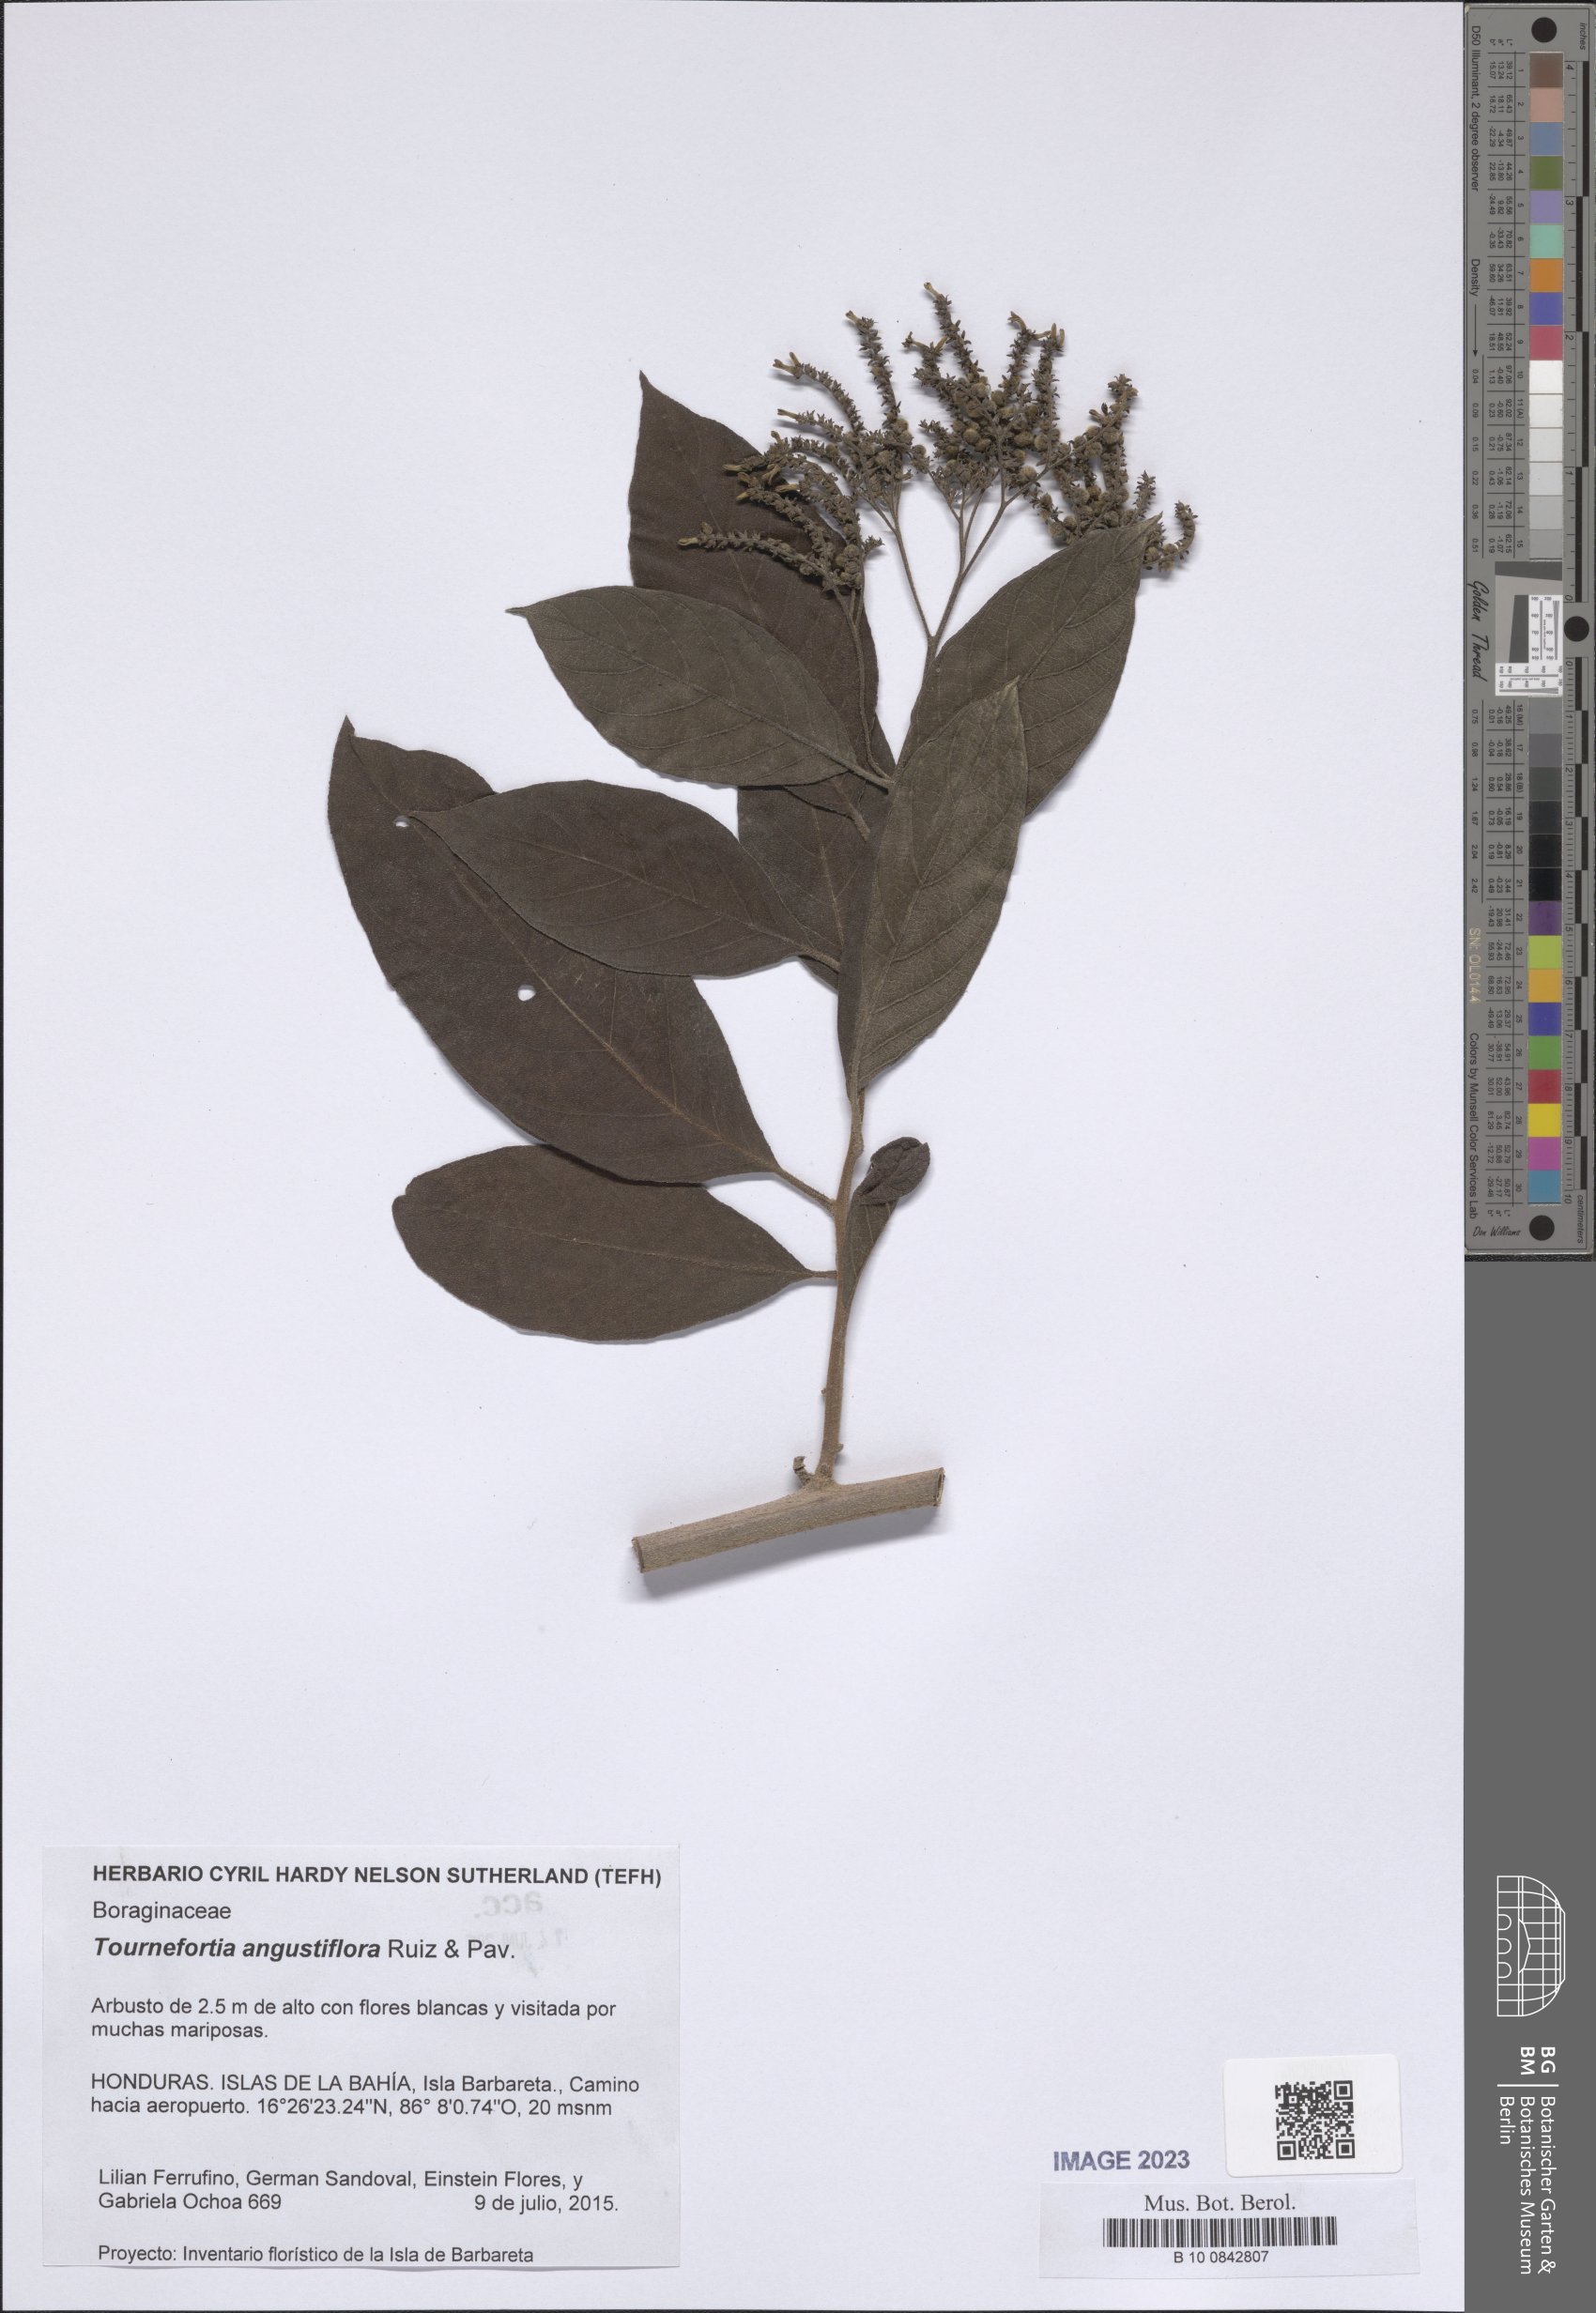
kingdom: Plantae
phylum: Tracheophyta
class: Magnoliopsida
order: Boraginales
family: Heliotropiaceae
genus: Heliotropium
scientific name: Heliotropium angustiflorum
